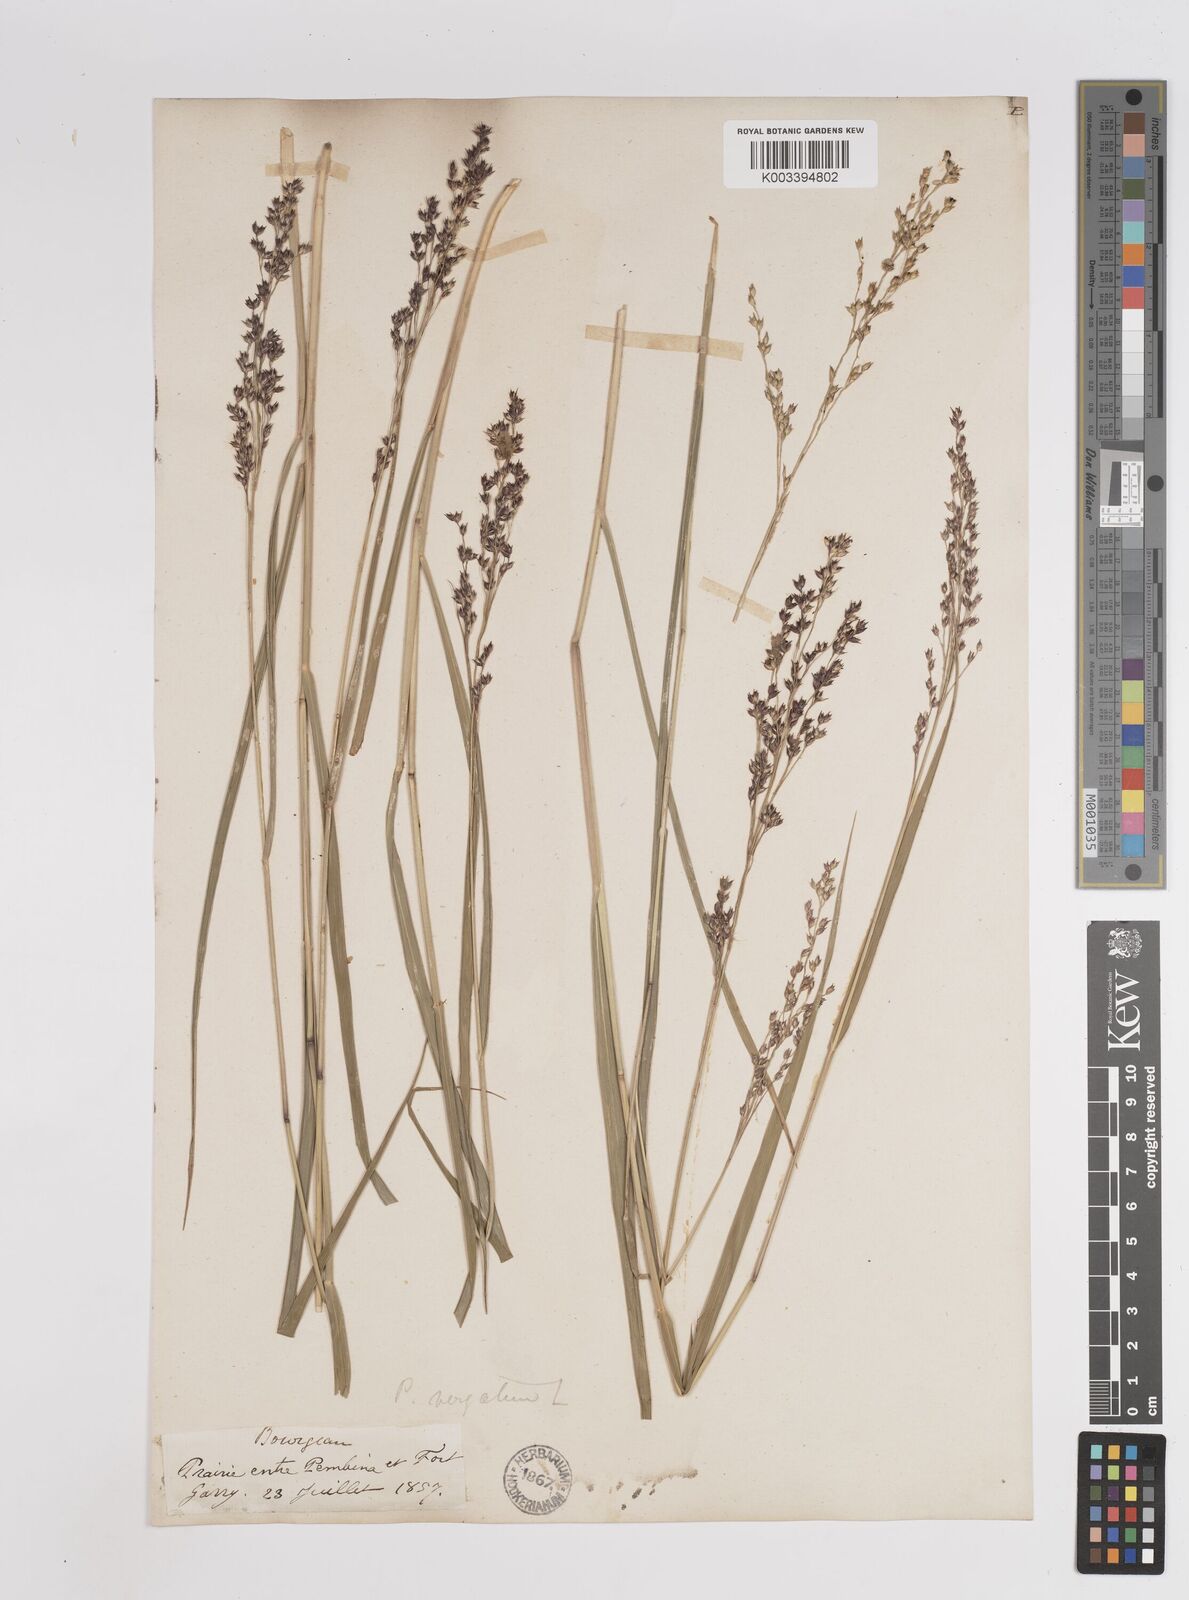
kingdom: Plantae
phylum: Tracheophyta
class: Liliopsida
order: Poales
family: Poaceae
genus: Panicum
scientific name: Panicum virgatum
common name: Switchgrass
